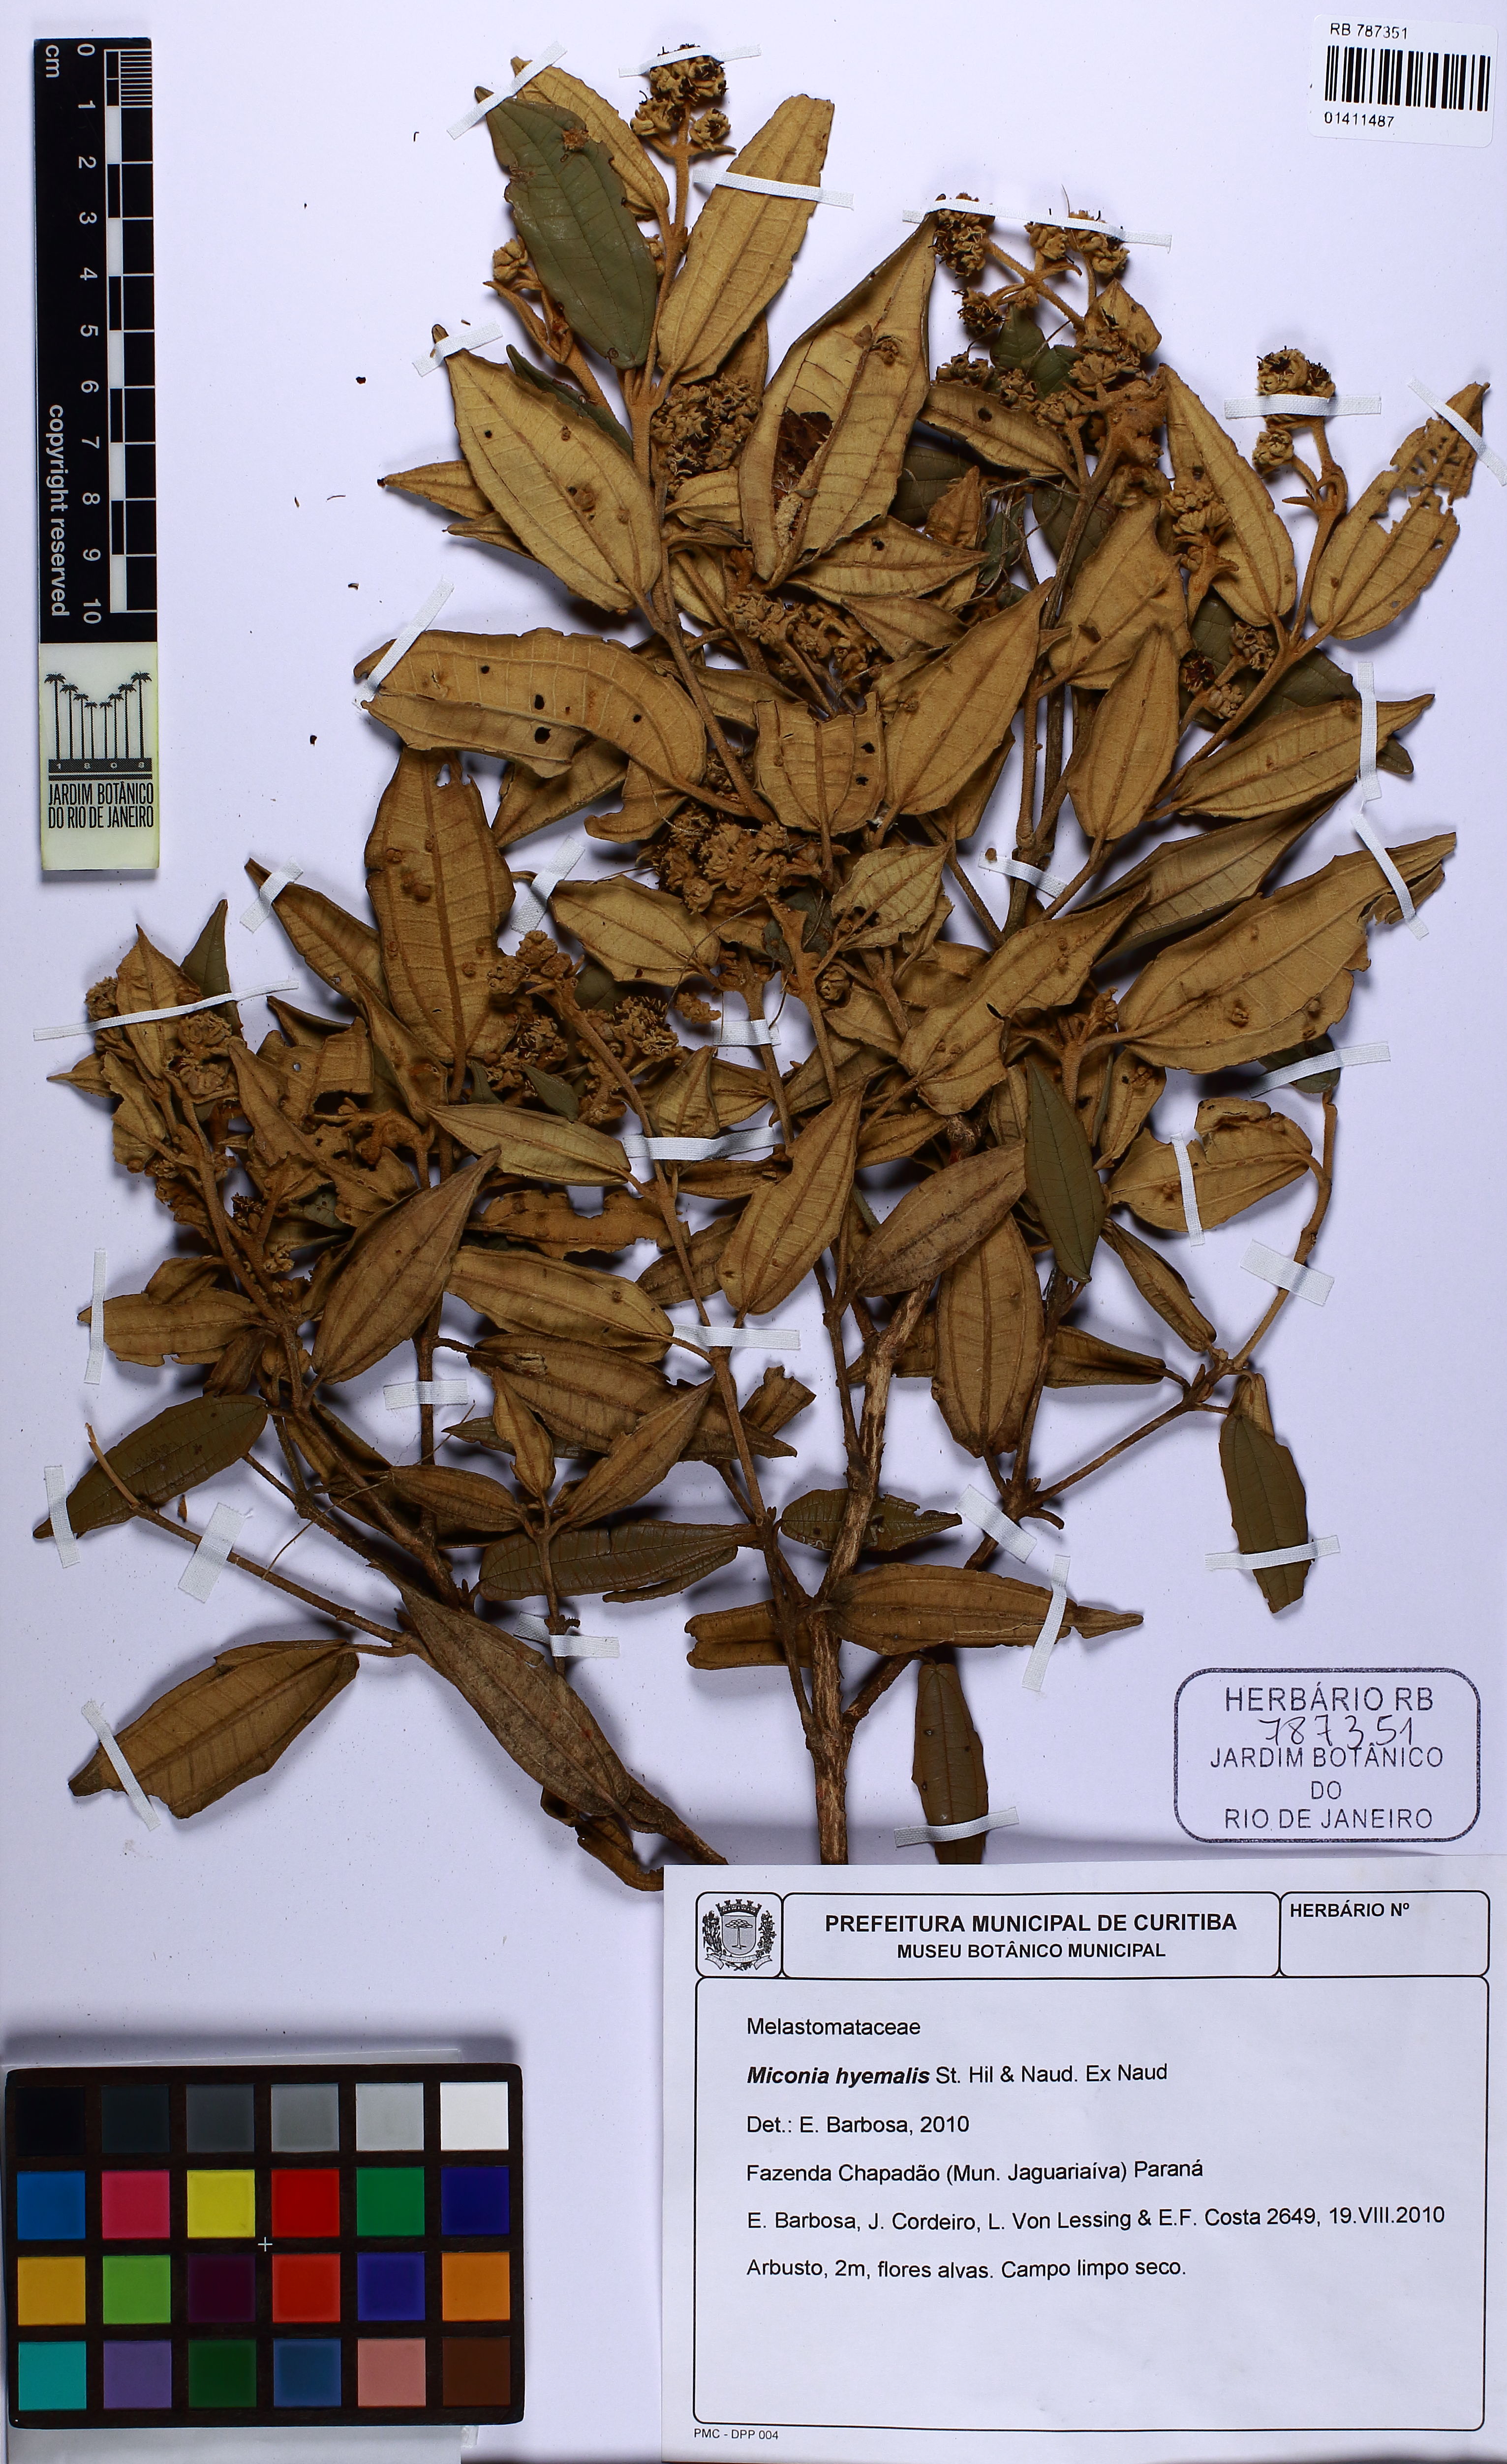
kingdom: Plantae
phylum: Tracheophyta
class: Magnoliopsida
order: Myrtales
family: Melastomataceae
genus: Miconia
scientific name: Miconia hyemalis
